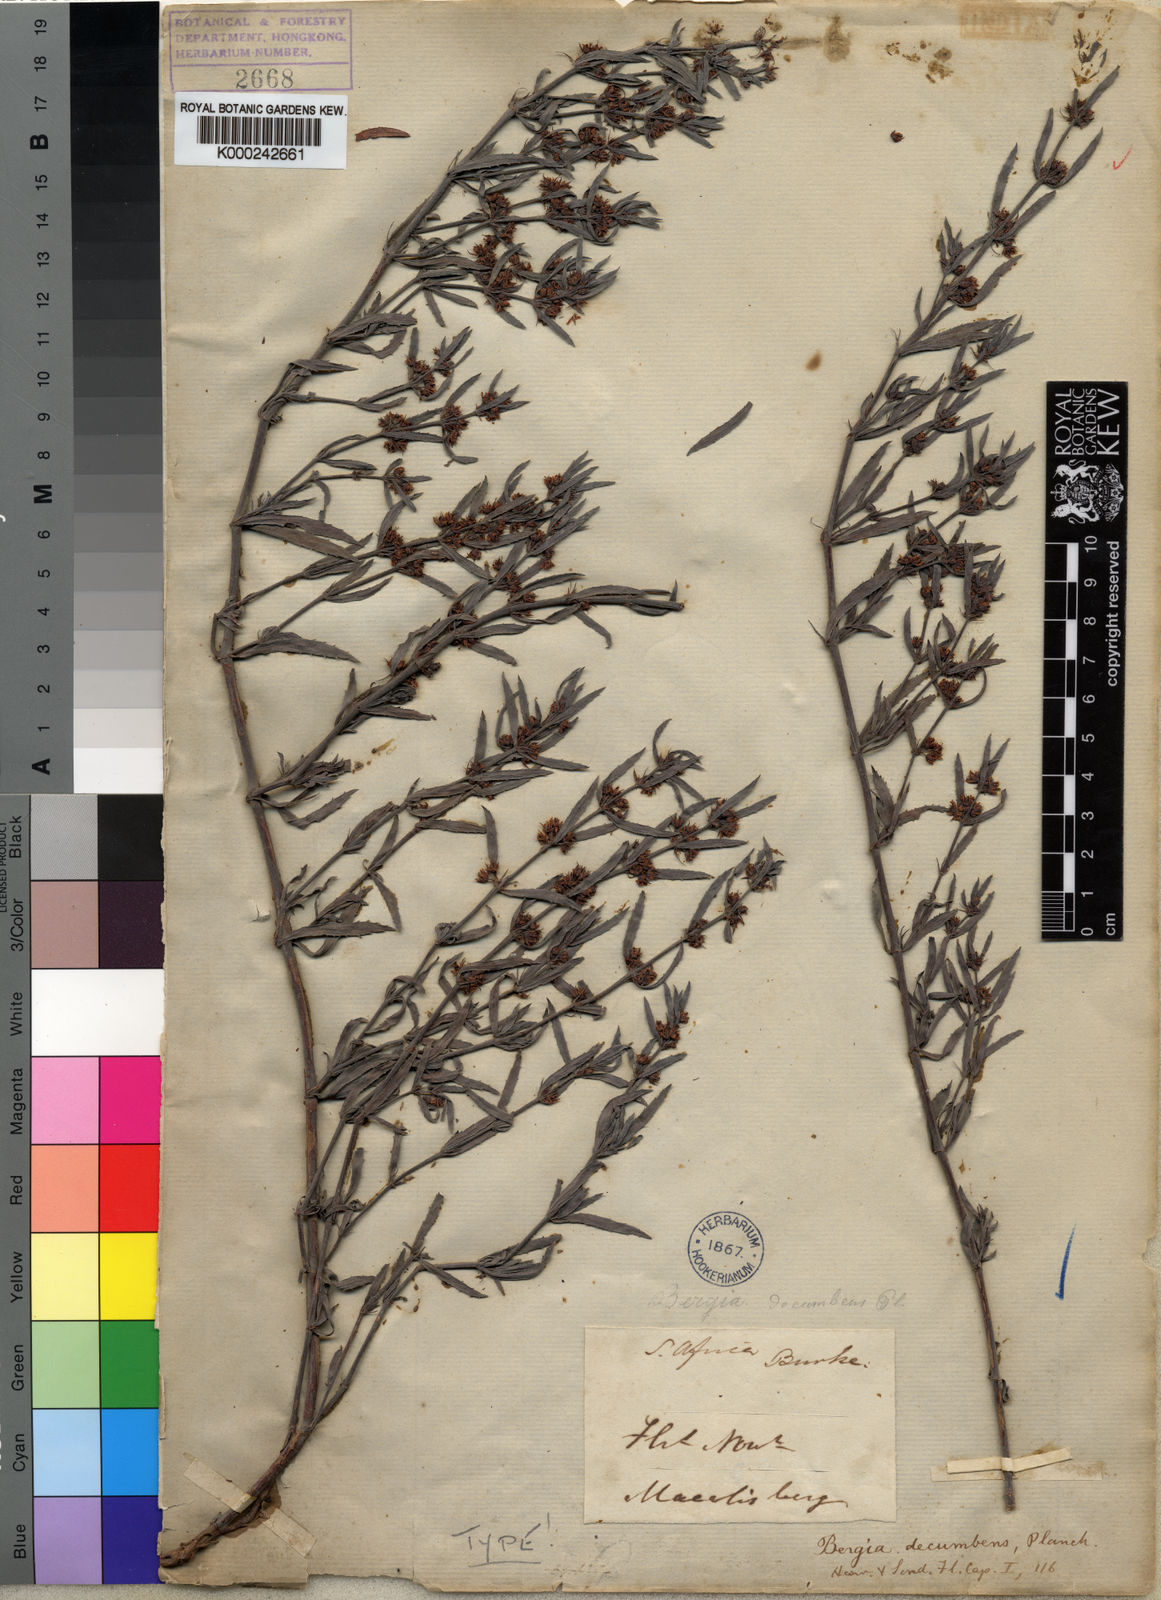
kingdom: Plantae
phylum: Tracheophyta
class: Magnoliopsida
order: Malpighiales
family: Elatinaceae
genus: Bergia
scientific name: Bergia decumbens
